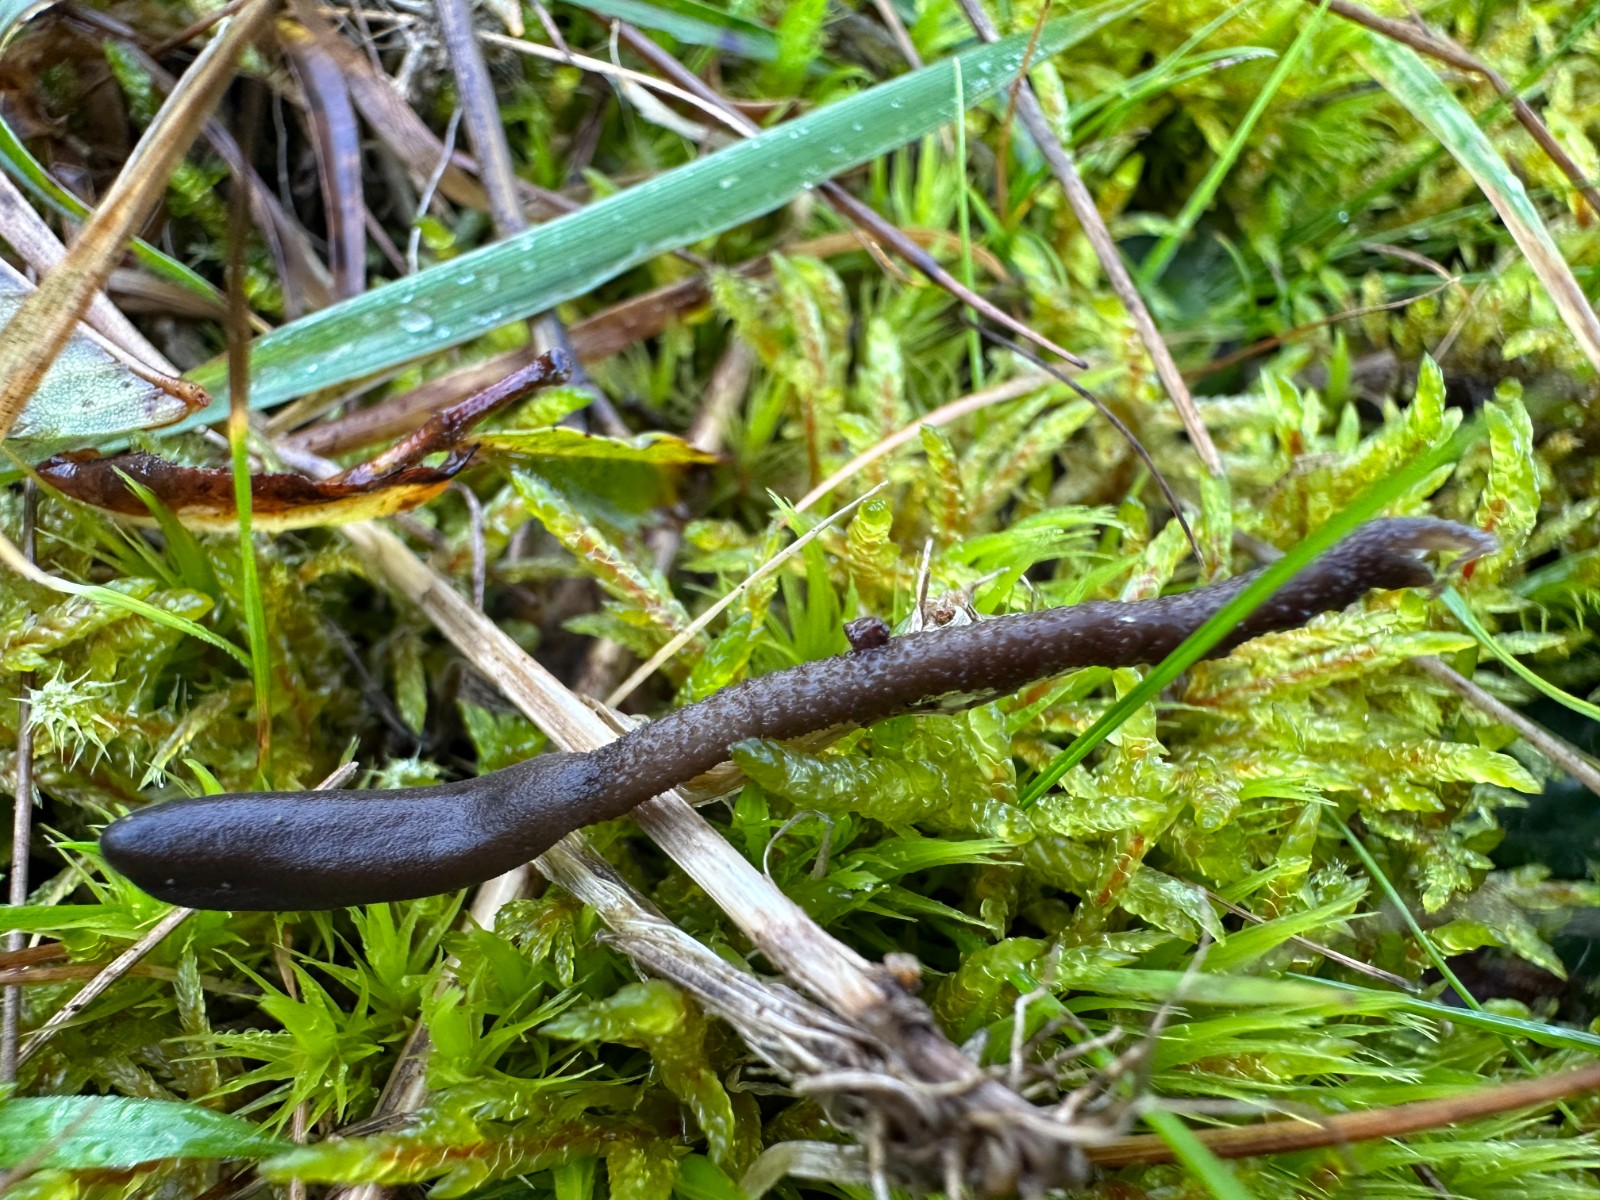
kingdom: Fungi
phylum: Ascomycota
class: Geoglossomycetes
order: Geoglossales
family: Geoglossaceae
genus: Geoglossum
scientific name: Geoglossum fallax
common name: småskællet jordtunge
